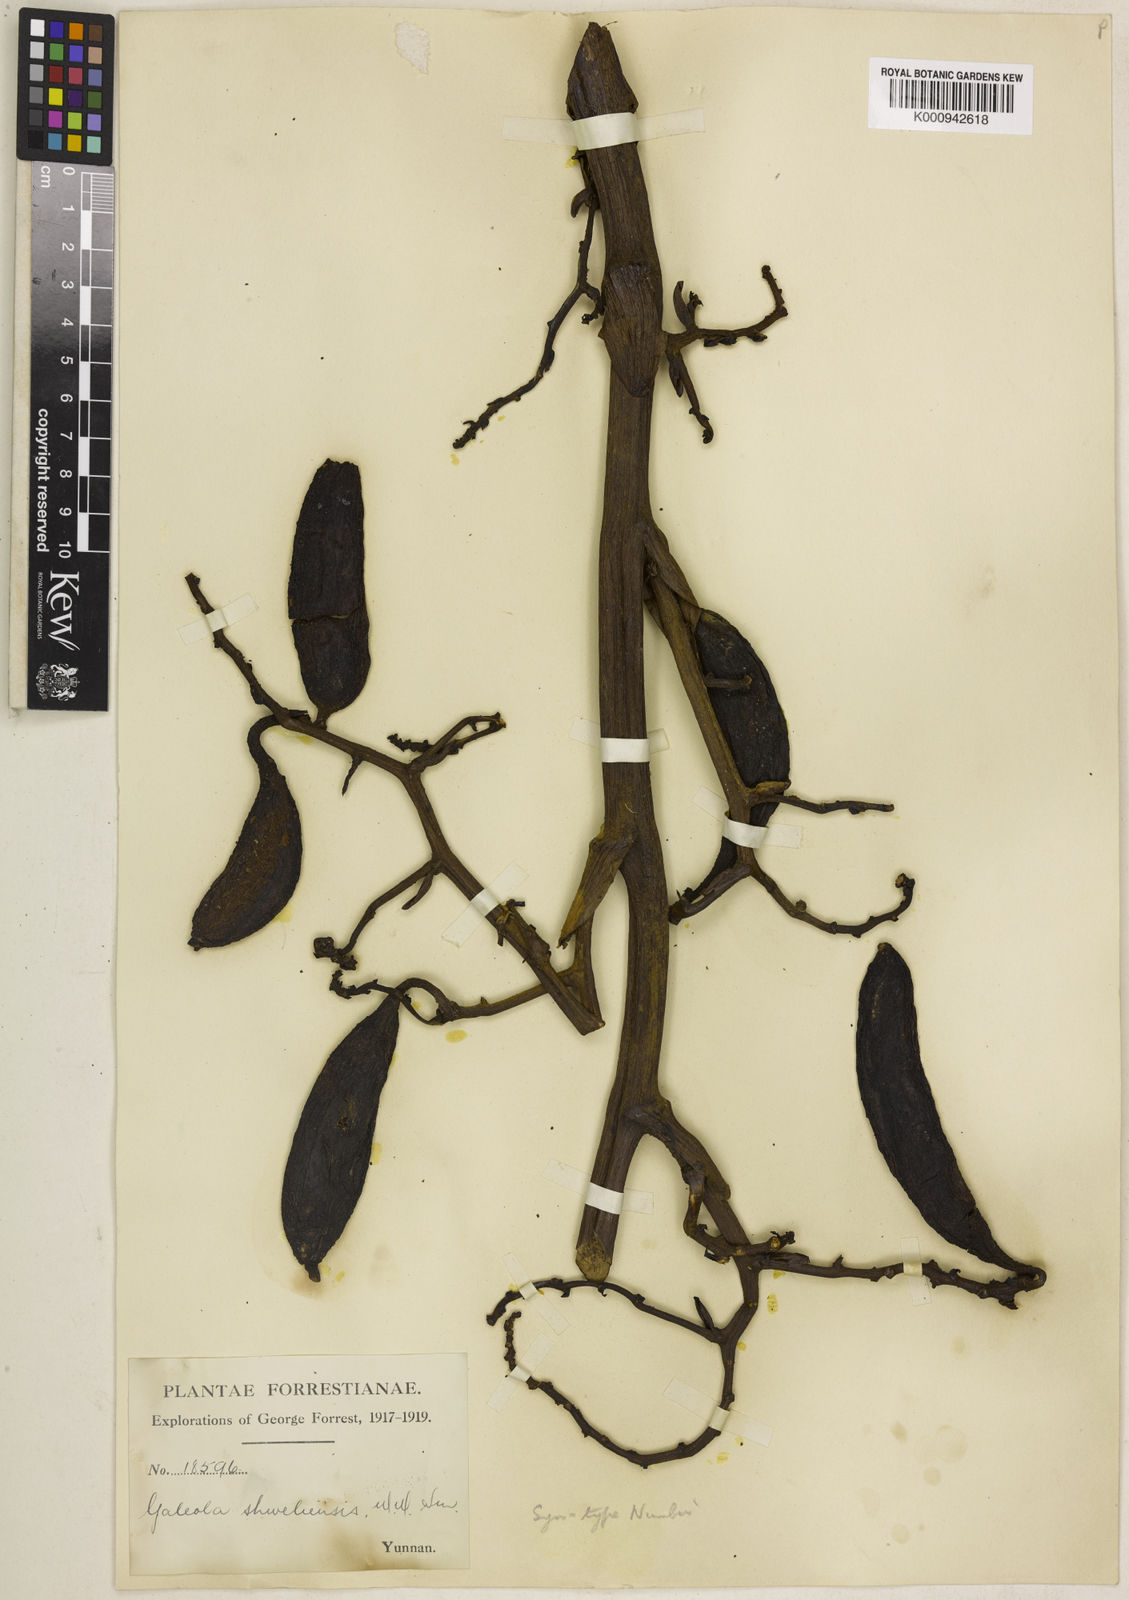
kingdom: Plantae
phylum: Tracheophyta
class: Liliopsida
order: Asparagales
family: Orchidaceae
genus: Galeola
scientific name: Galeola faberi
